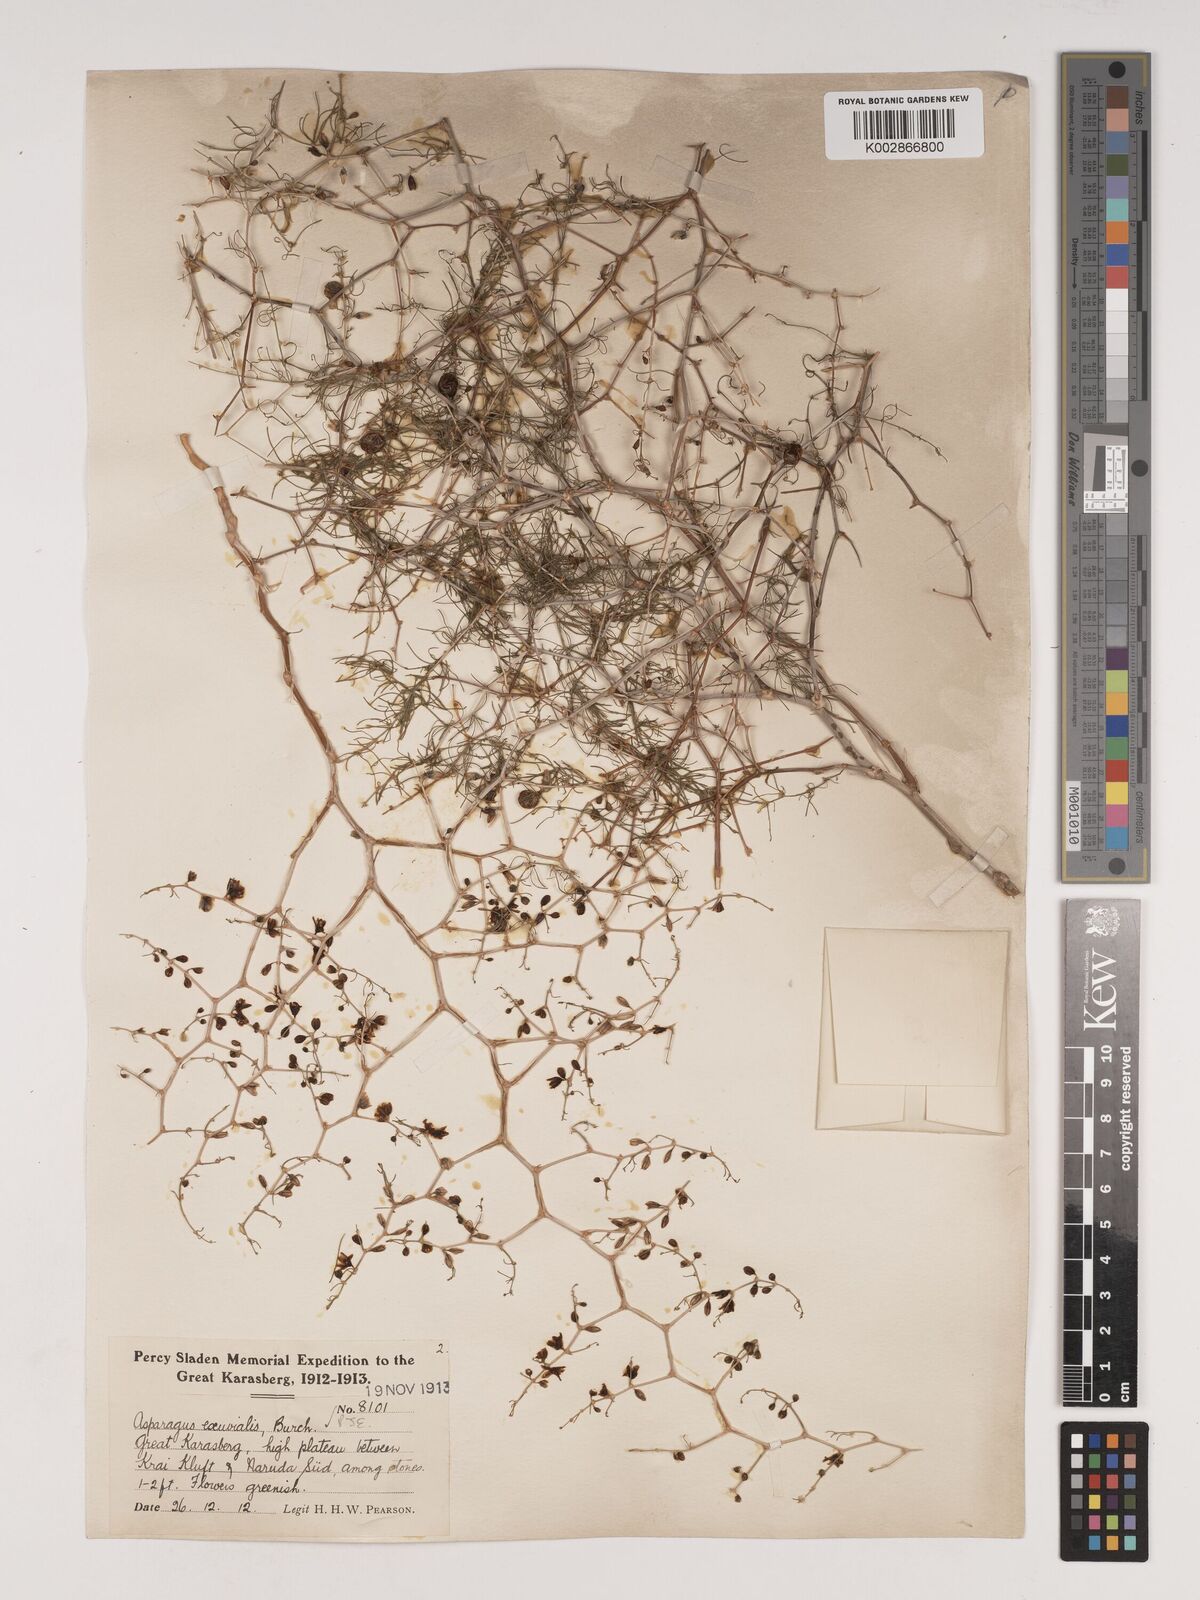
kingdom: Plantae
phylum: Tracheophyta
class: Liliopsida
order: Asparagales
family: Asparagaceae
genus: Asparagus
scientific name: Asparagus exuvialis
